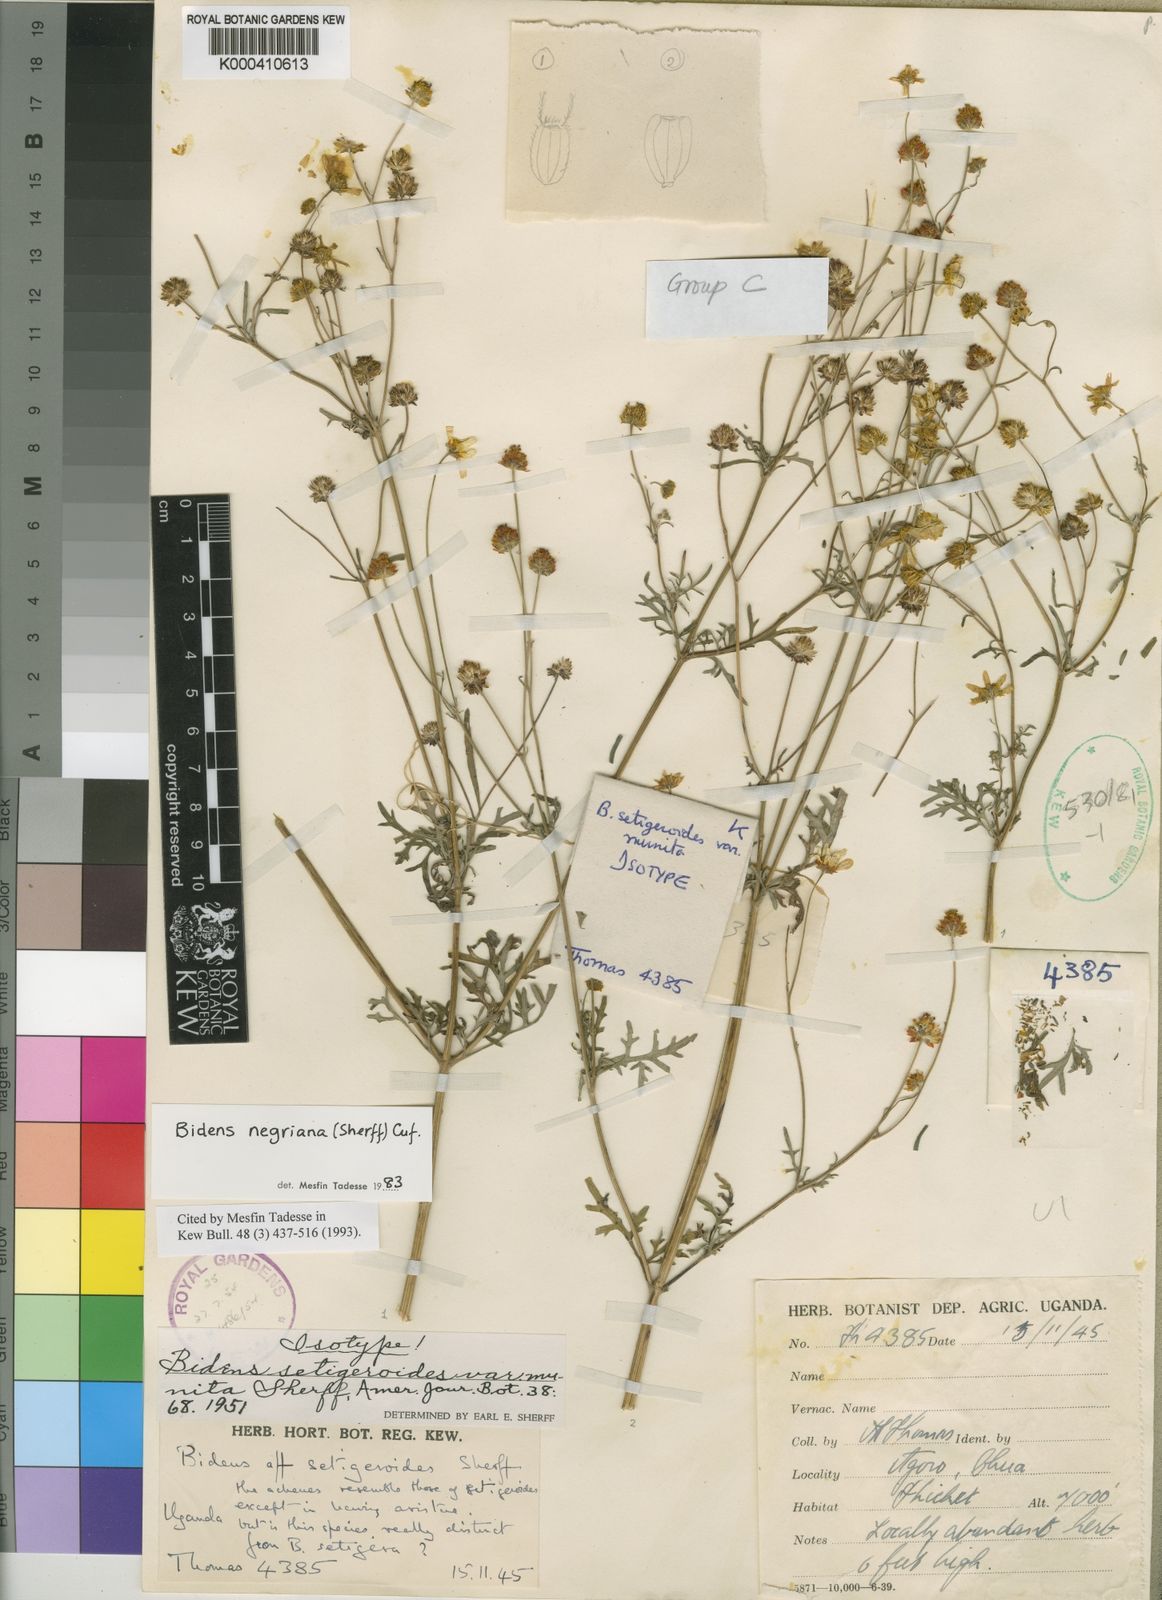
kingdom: Plantae
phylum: Tracheophyta
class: Magnoliopsida
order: Asterales
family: Asteraceae
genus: Bidens
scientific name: Bidens negriana
